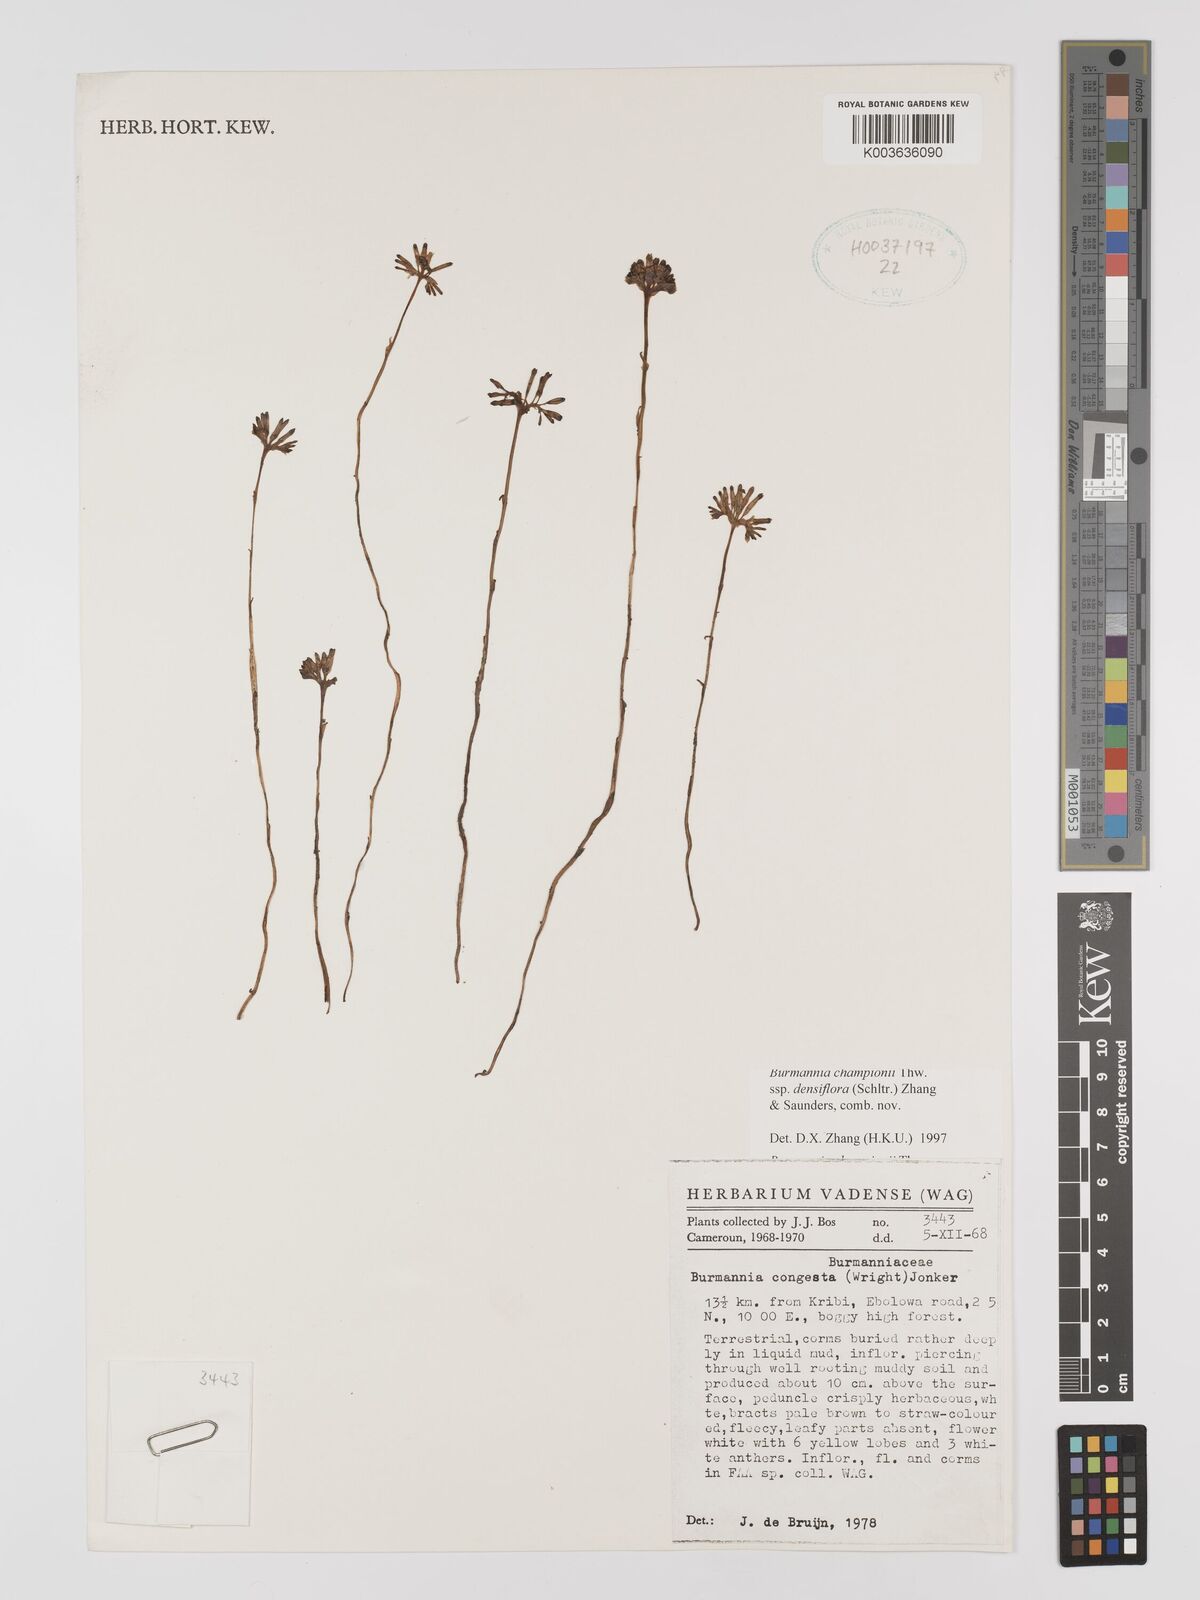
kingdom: Plantae
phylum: Tracheophyta
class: Liliopsida
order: Dioscoreales
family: Burmanniaceae
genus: Campylosiphon
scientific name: Campylosiphon congestus
